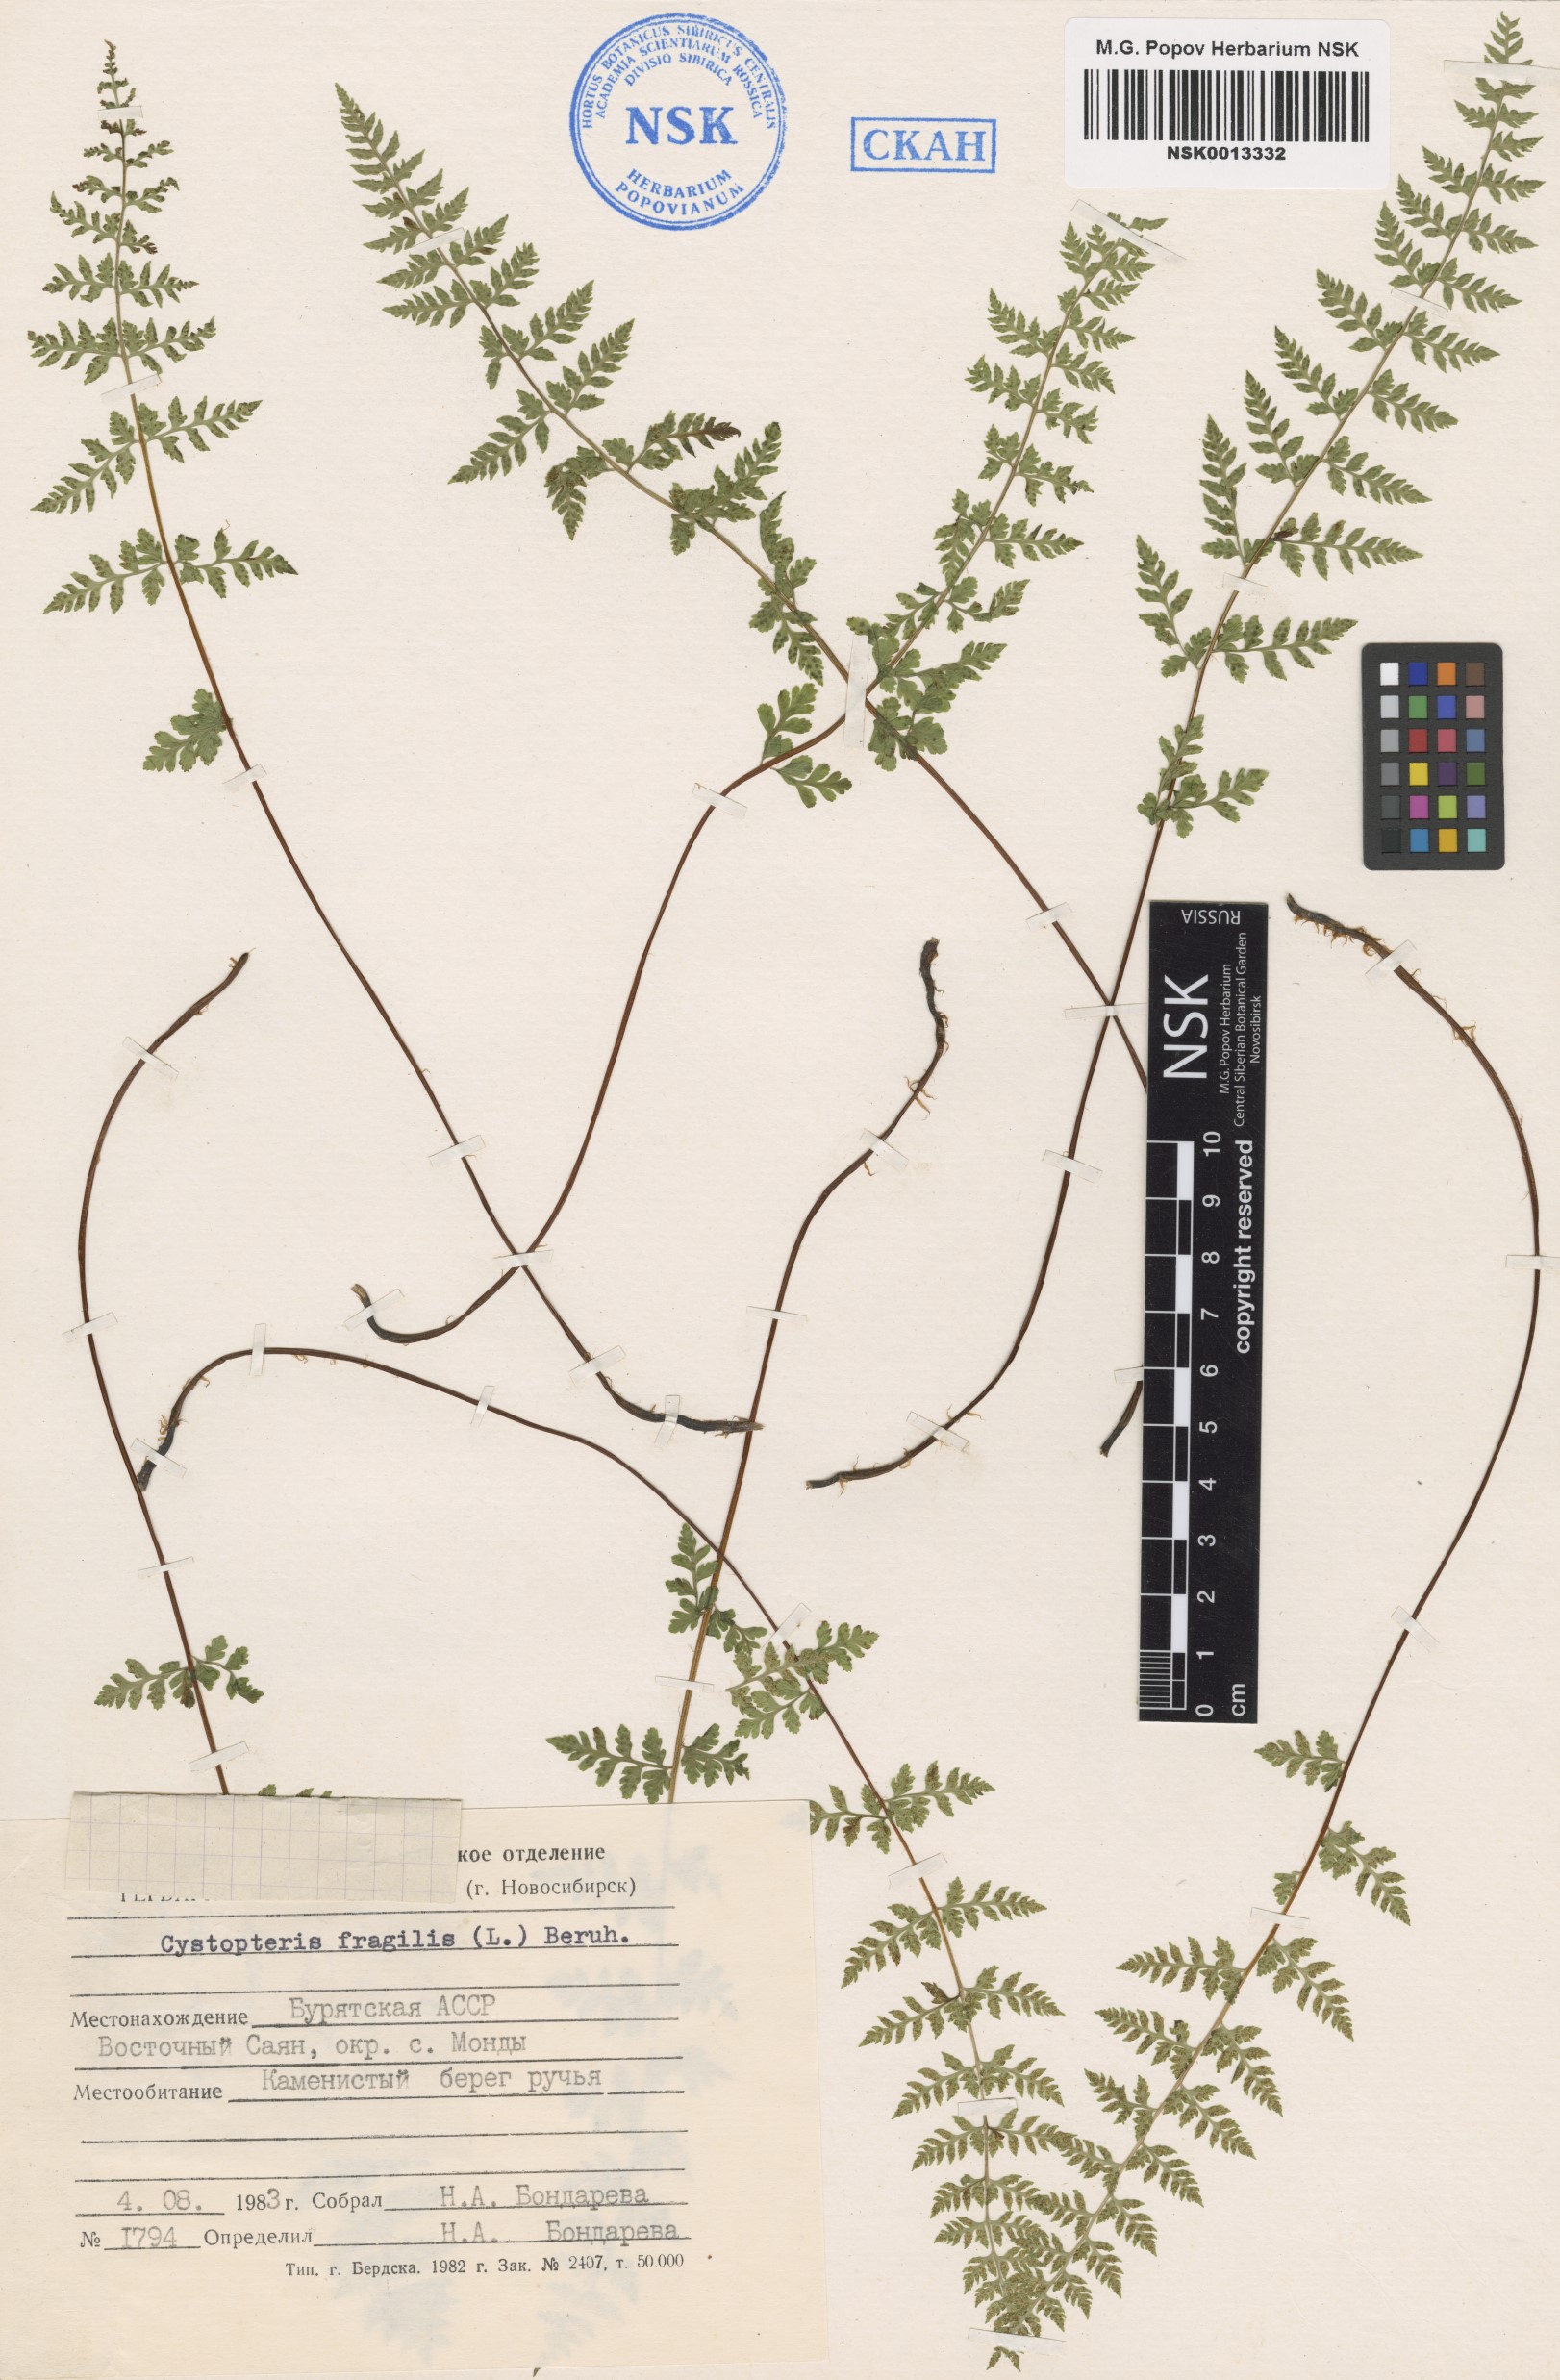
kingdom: Plantae
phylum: Tracheophyta
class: Polypodiopsida
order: Polypodiales
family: Cystopteridaceae
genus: Cystopteris
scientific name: Cystopteris fragilis
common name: Brittle bladder fern
